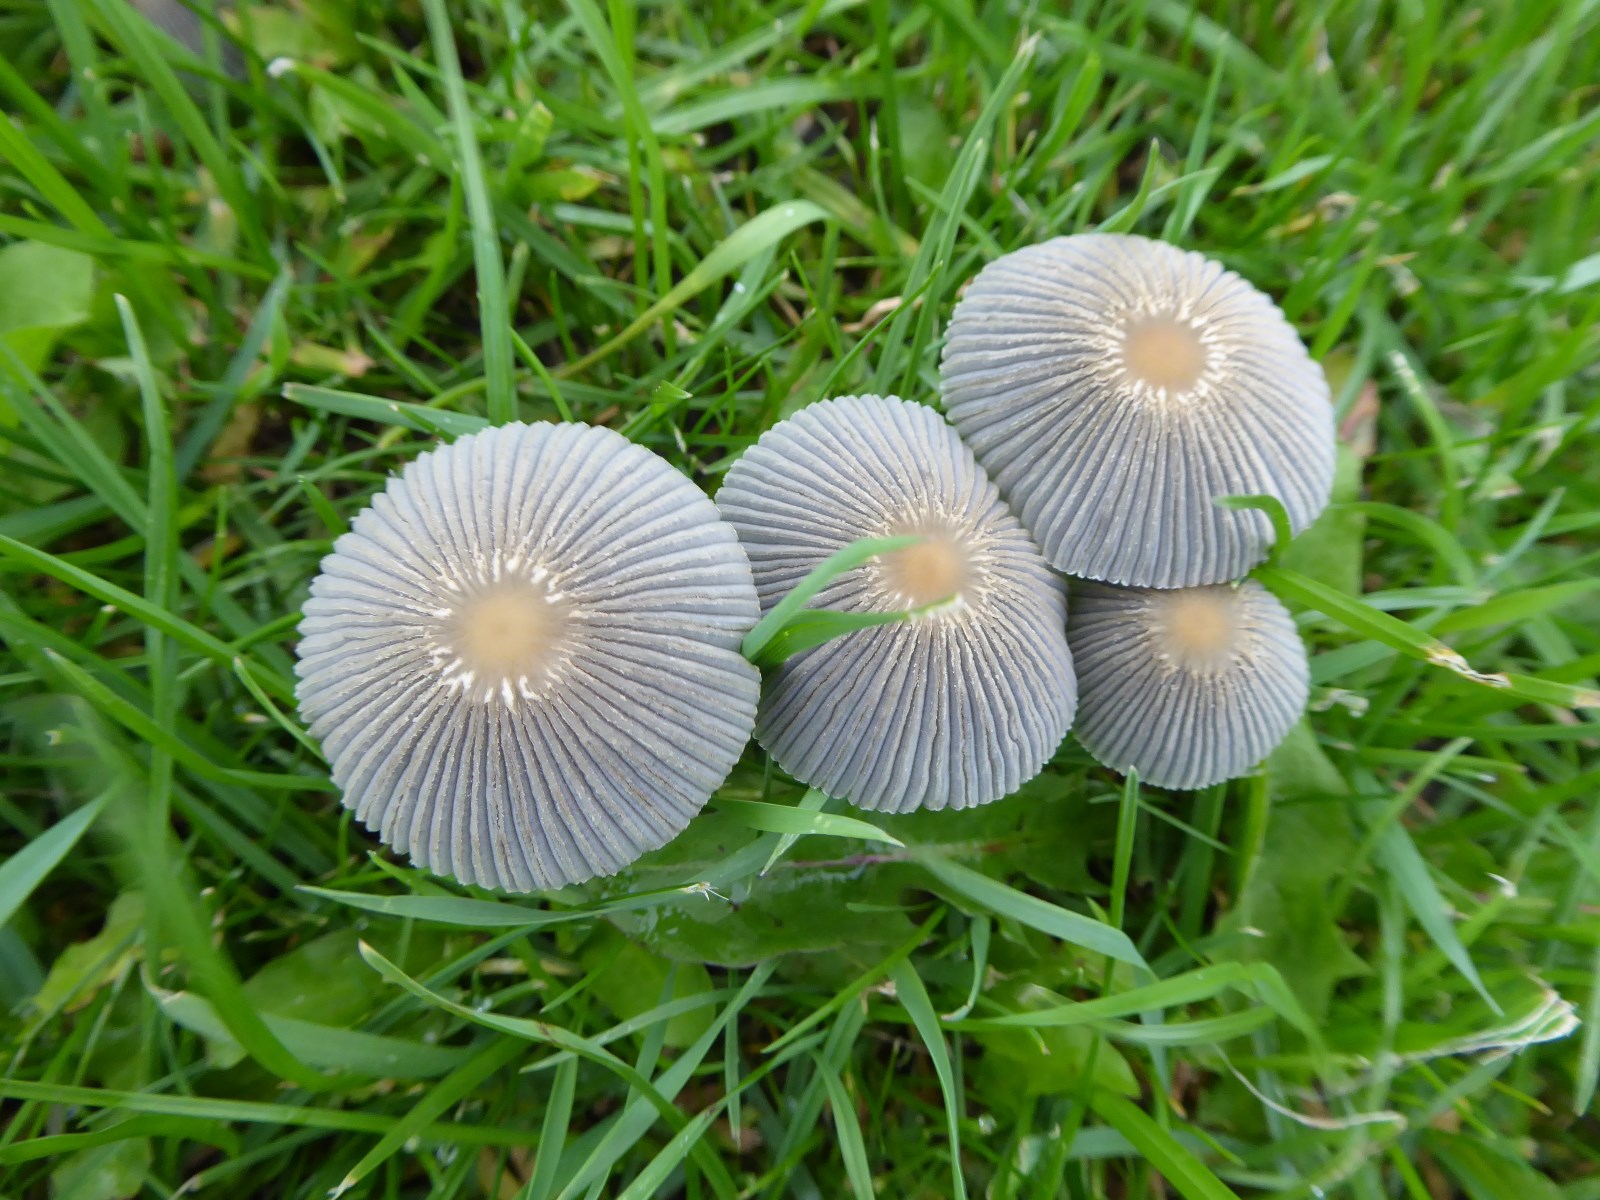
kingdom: Fungi
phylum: Basidiomycota
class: Agaricomycetes
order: Agaricales
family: Psathyrellaceae
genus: Parasola
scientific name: Parasola
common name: hjulhat
